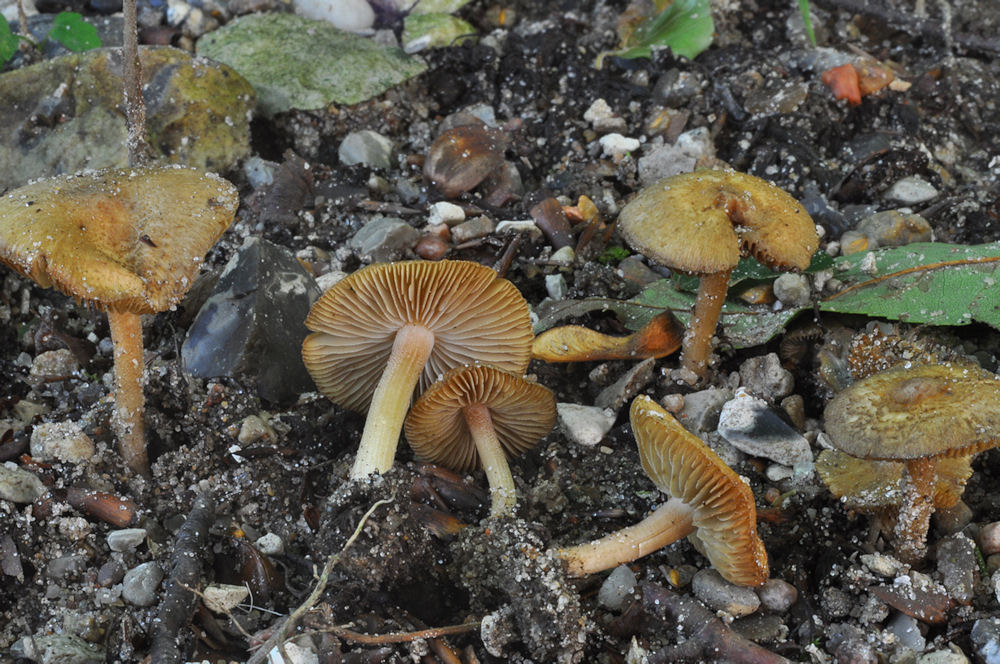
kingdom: Fungi
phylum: Basidiomycota
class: Agaricomycetes
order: Agaricales
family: Inocybaceae
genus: Inocybe
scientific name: Inocybe hirtella
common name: mandel-trævlhat
